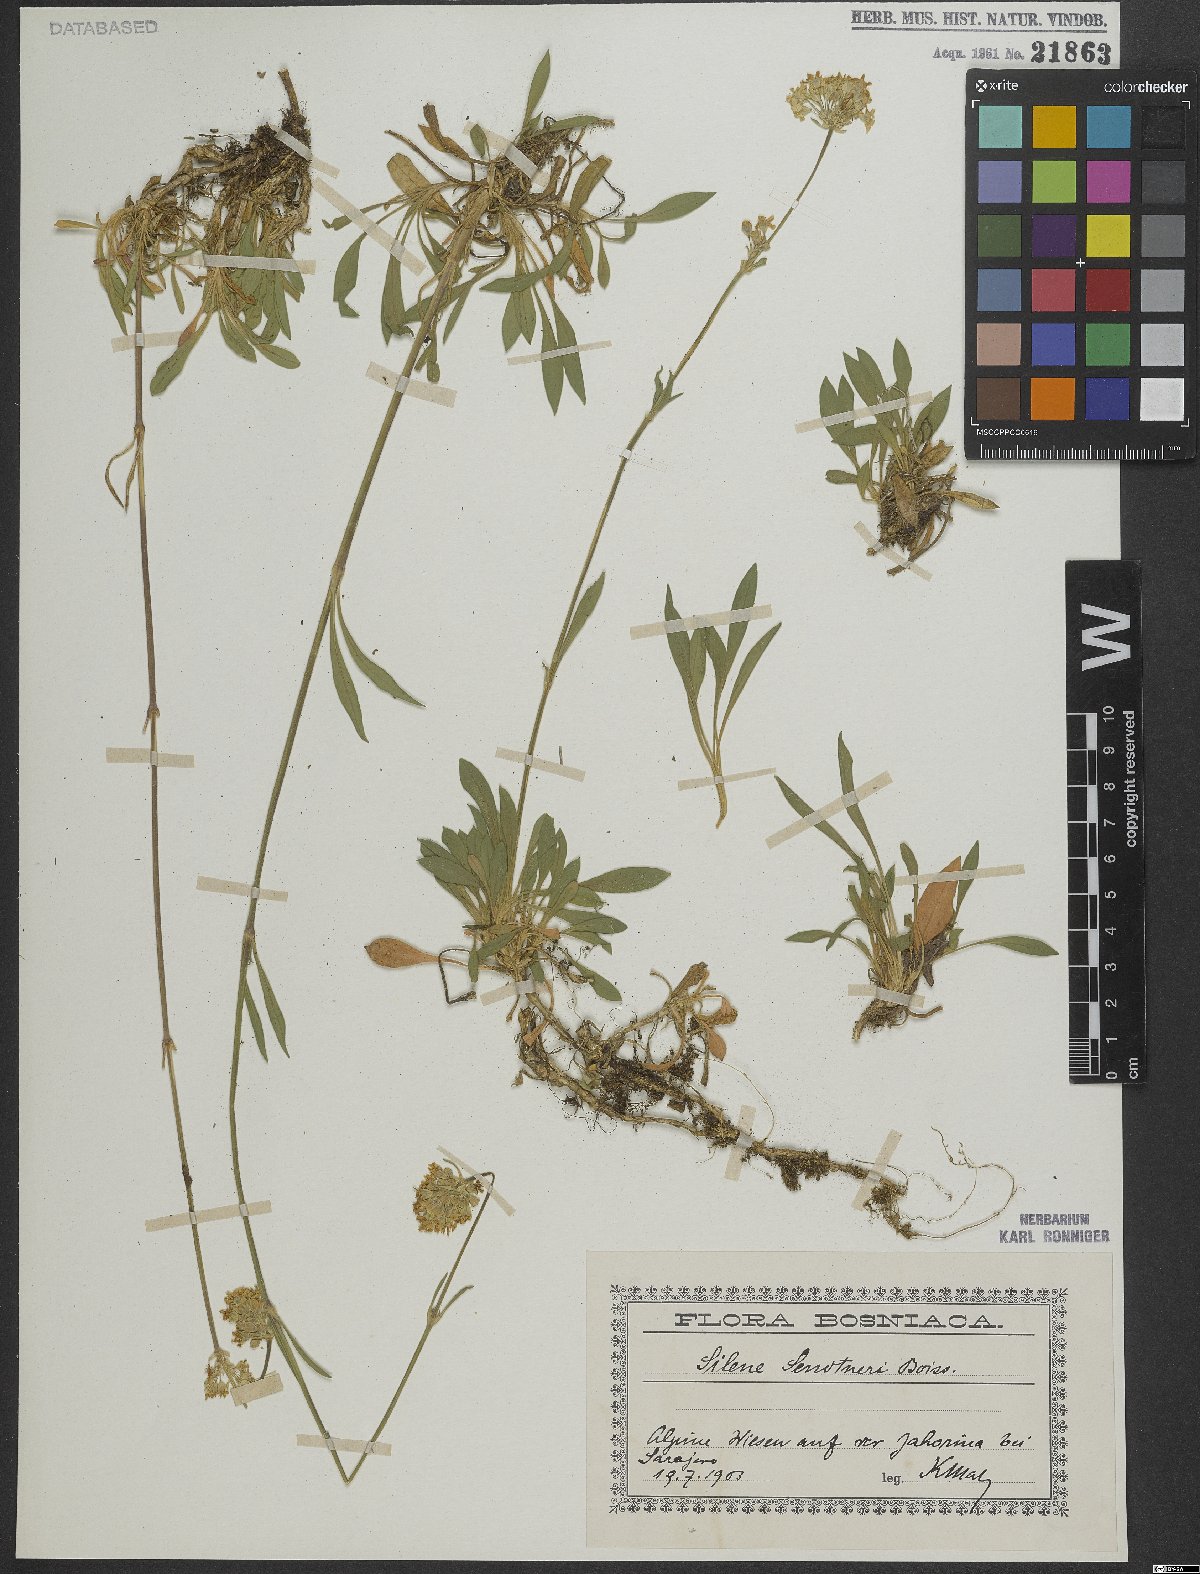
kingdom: Plantae
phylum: Tracheophyta
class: Magnoliopsida
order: Caryophyllales
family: Caryophyllaceae
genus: Silene
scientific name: Silene sendtneri
